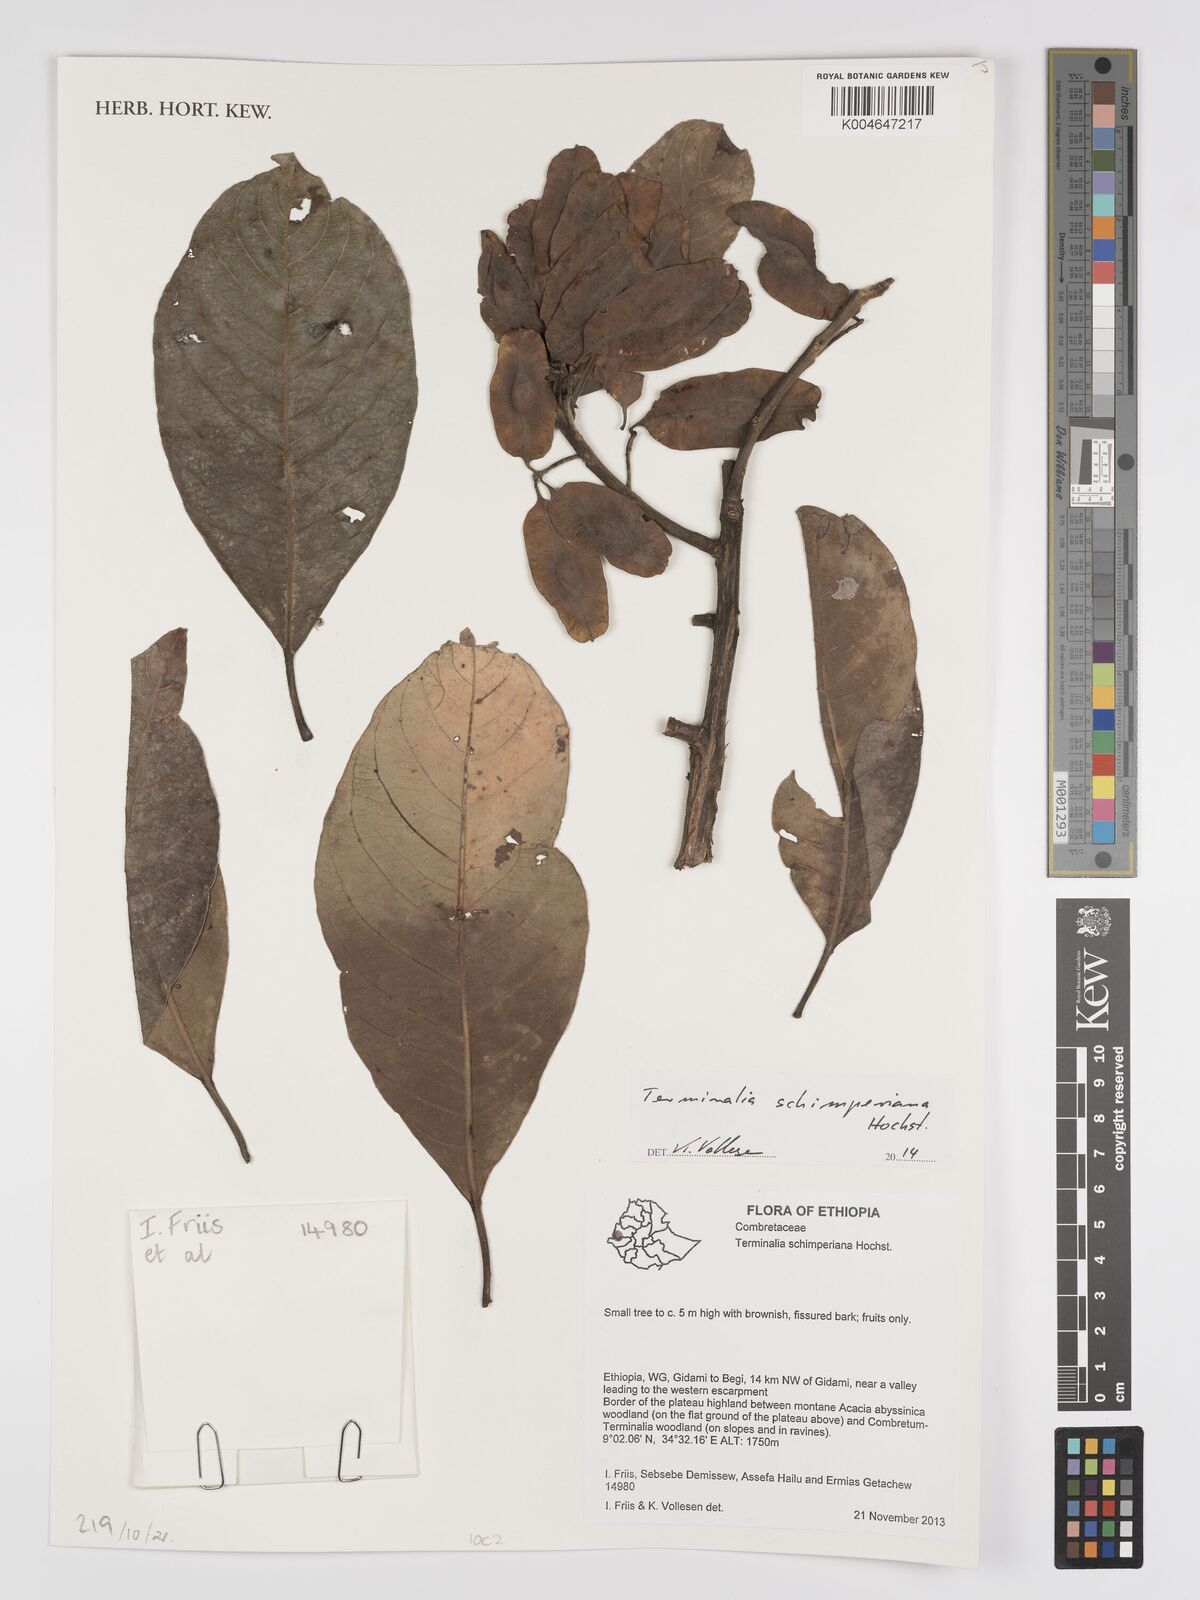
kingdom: Plantae
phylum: Tracheophyta
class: Magnoliopsida
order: Myrtales
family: Combretaceae
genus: Terminalia
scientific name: Terminalia schimperiana
